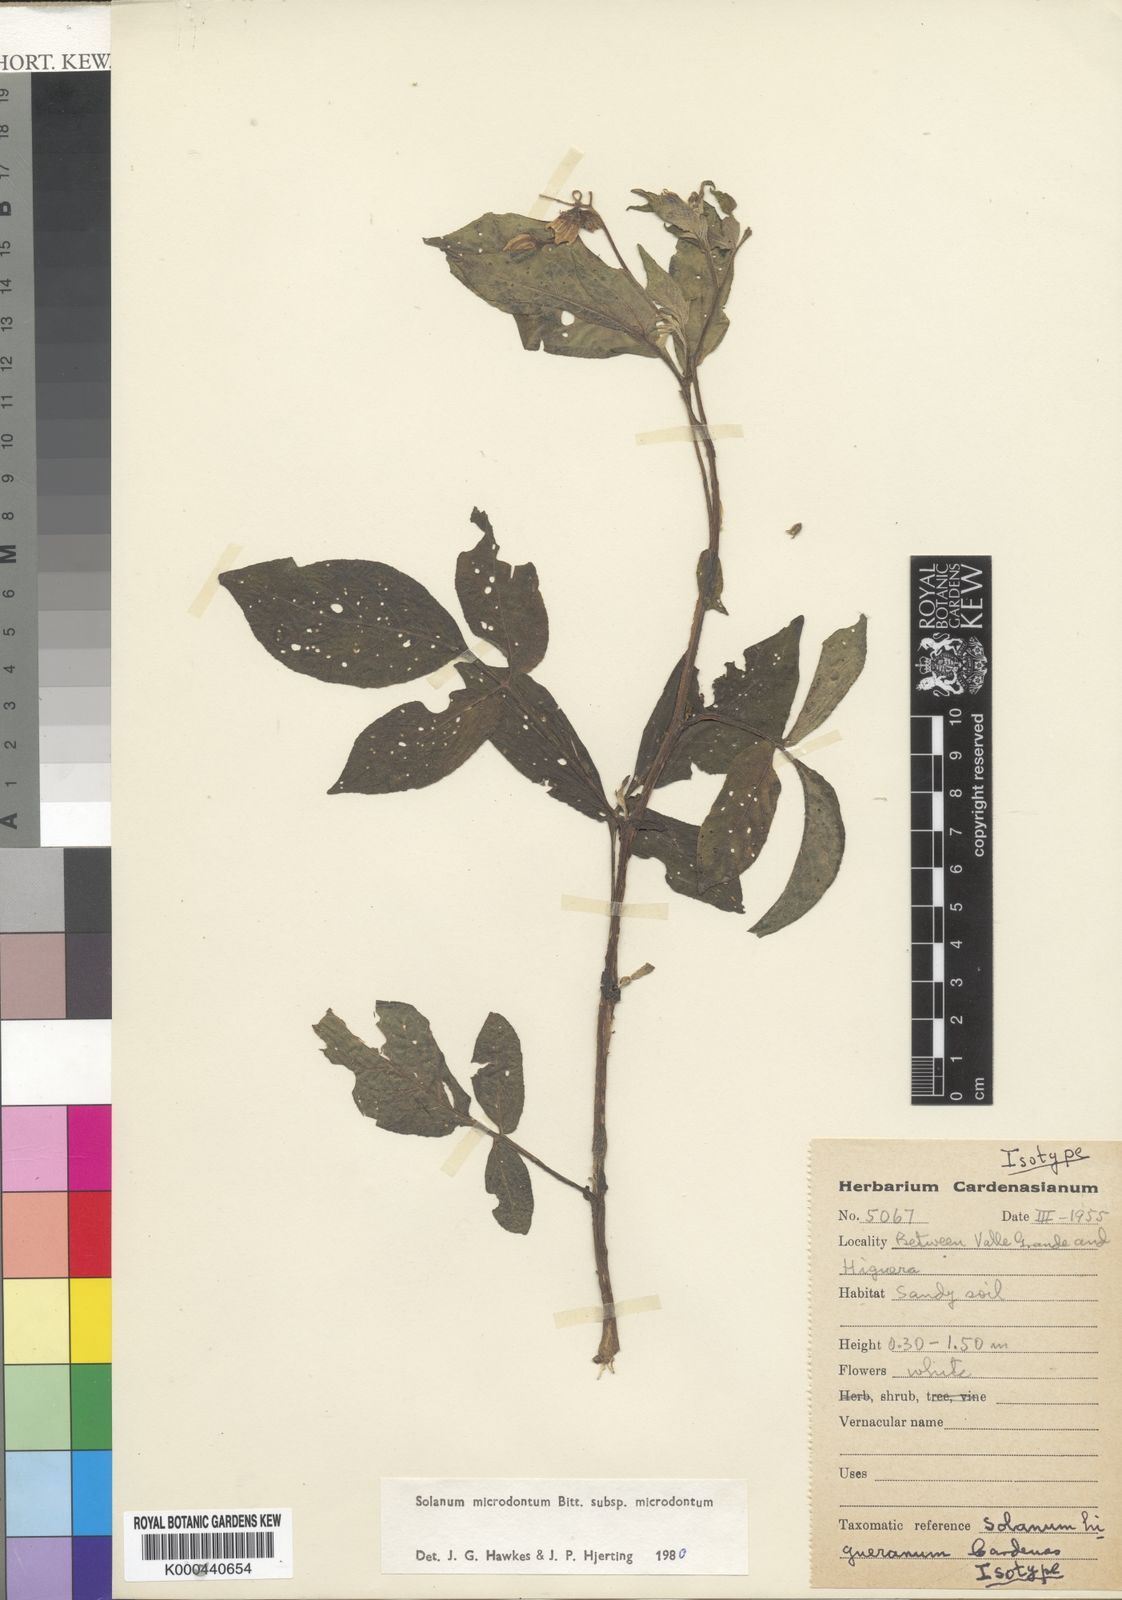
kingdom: Plantae
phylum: Tracheophyta
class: Magnoliopsida
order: Solanales
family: Solanaceae
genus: Solanum
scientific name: Solanum microdontum
